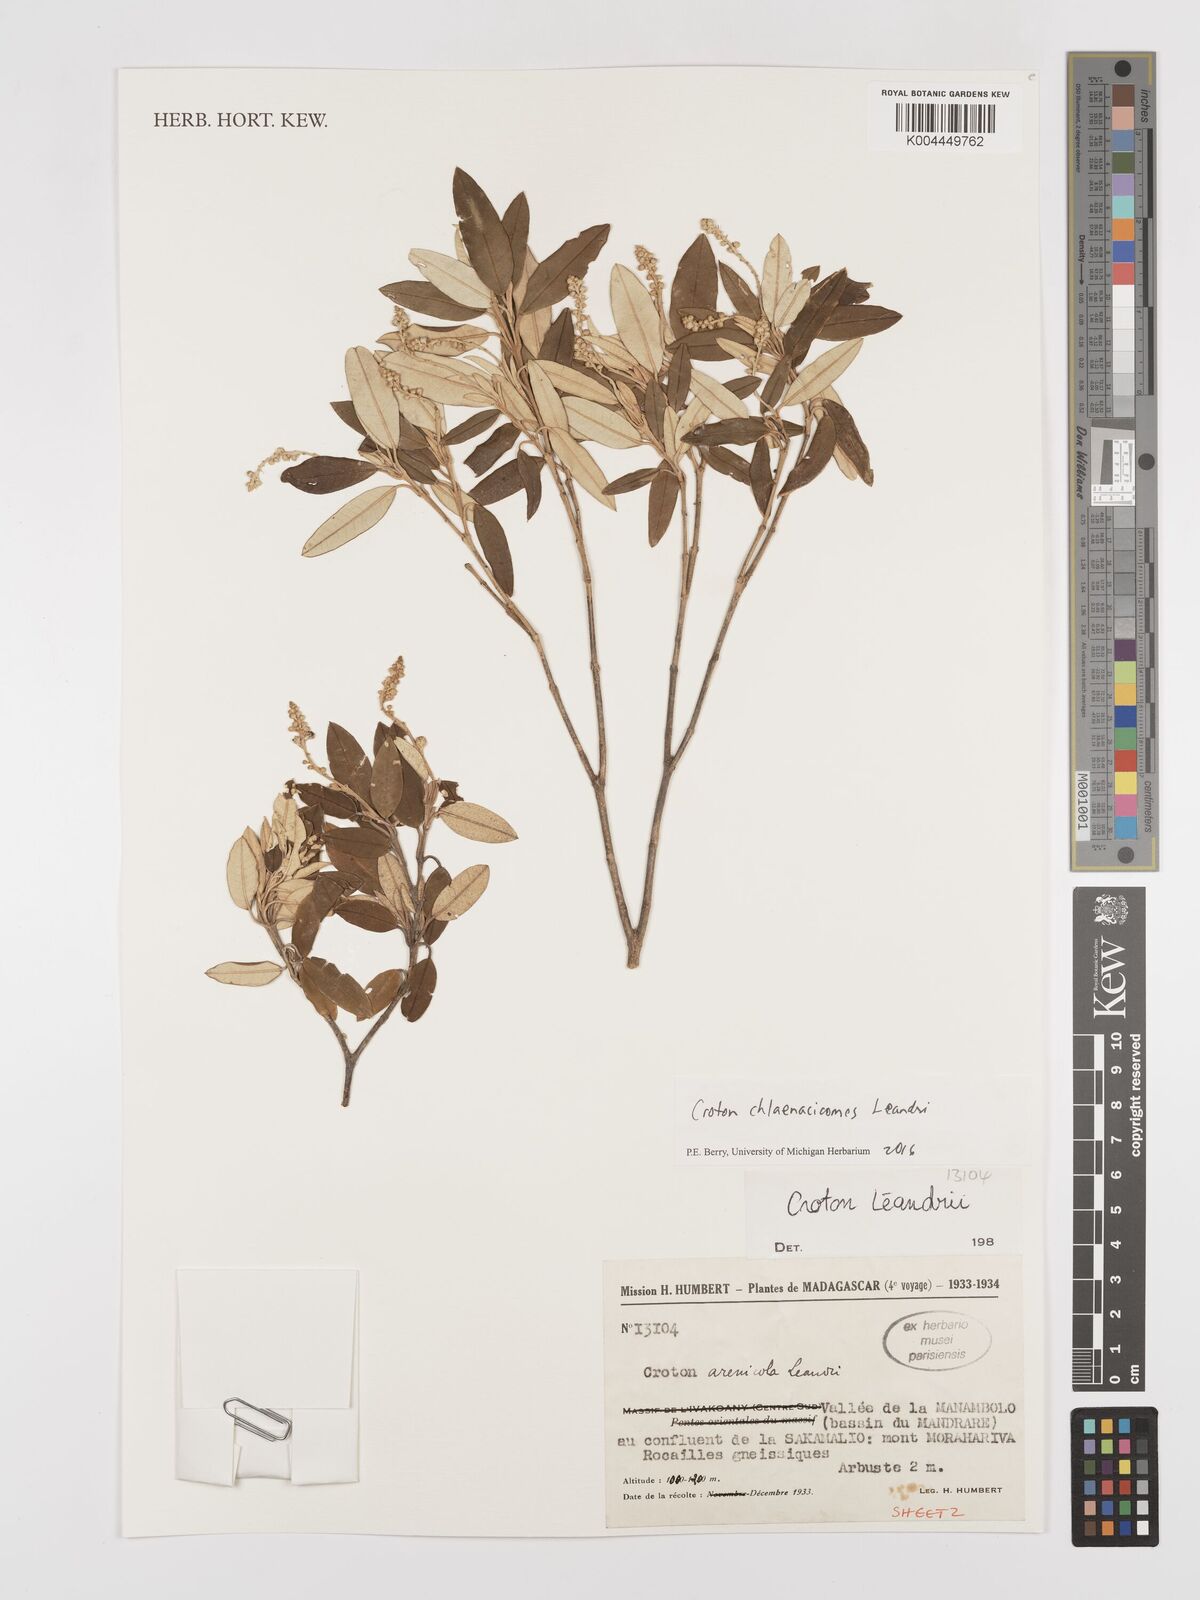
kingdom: Plantae
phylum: Tracheophyta
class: Magnoliopsida
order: Malpighiales
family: Euphorbiaceae
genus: Croton
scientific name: Croton chlaenacicomes
